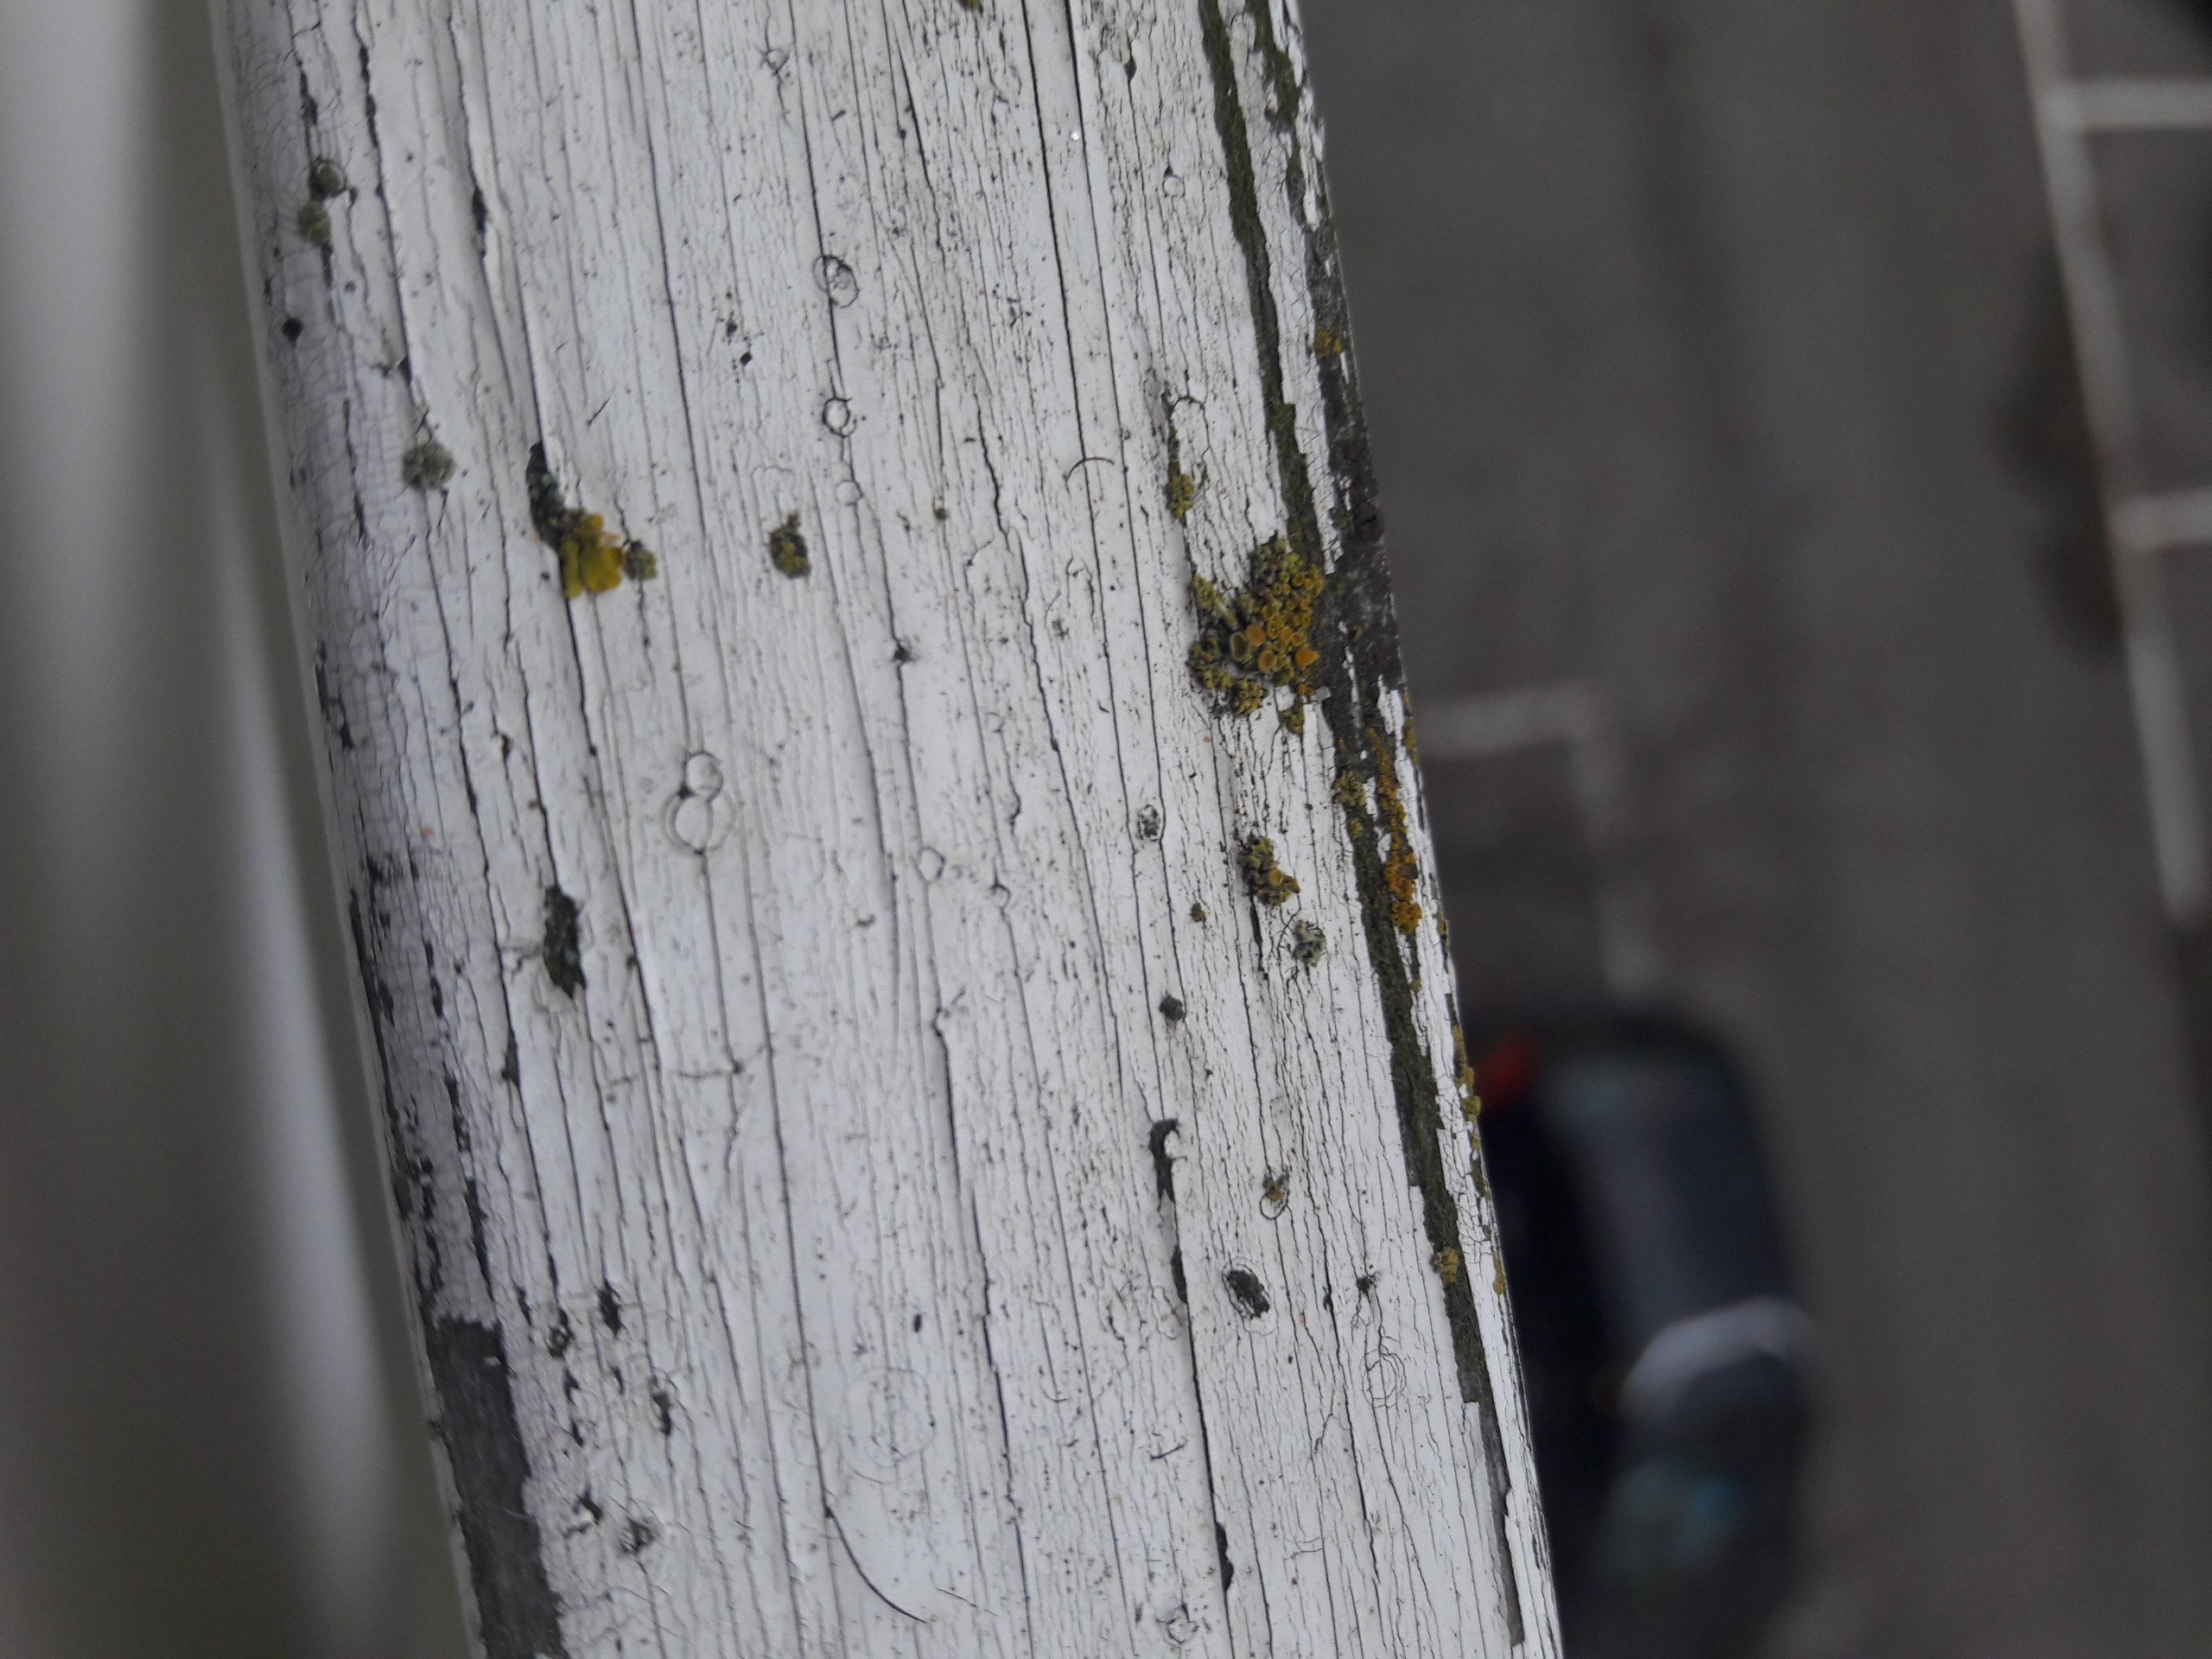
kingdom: Fungi
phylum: Ascomycota
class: Lecanoromycetes
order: Teloschistales
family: Teloschistaceae
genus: Polycauliona
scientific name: Polycauliona polycarpa
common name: Mangefrugtet orangelav
